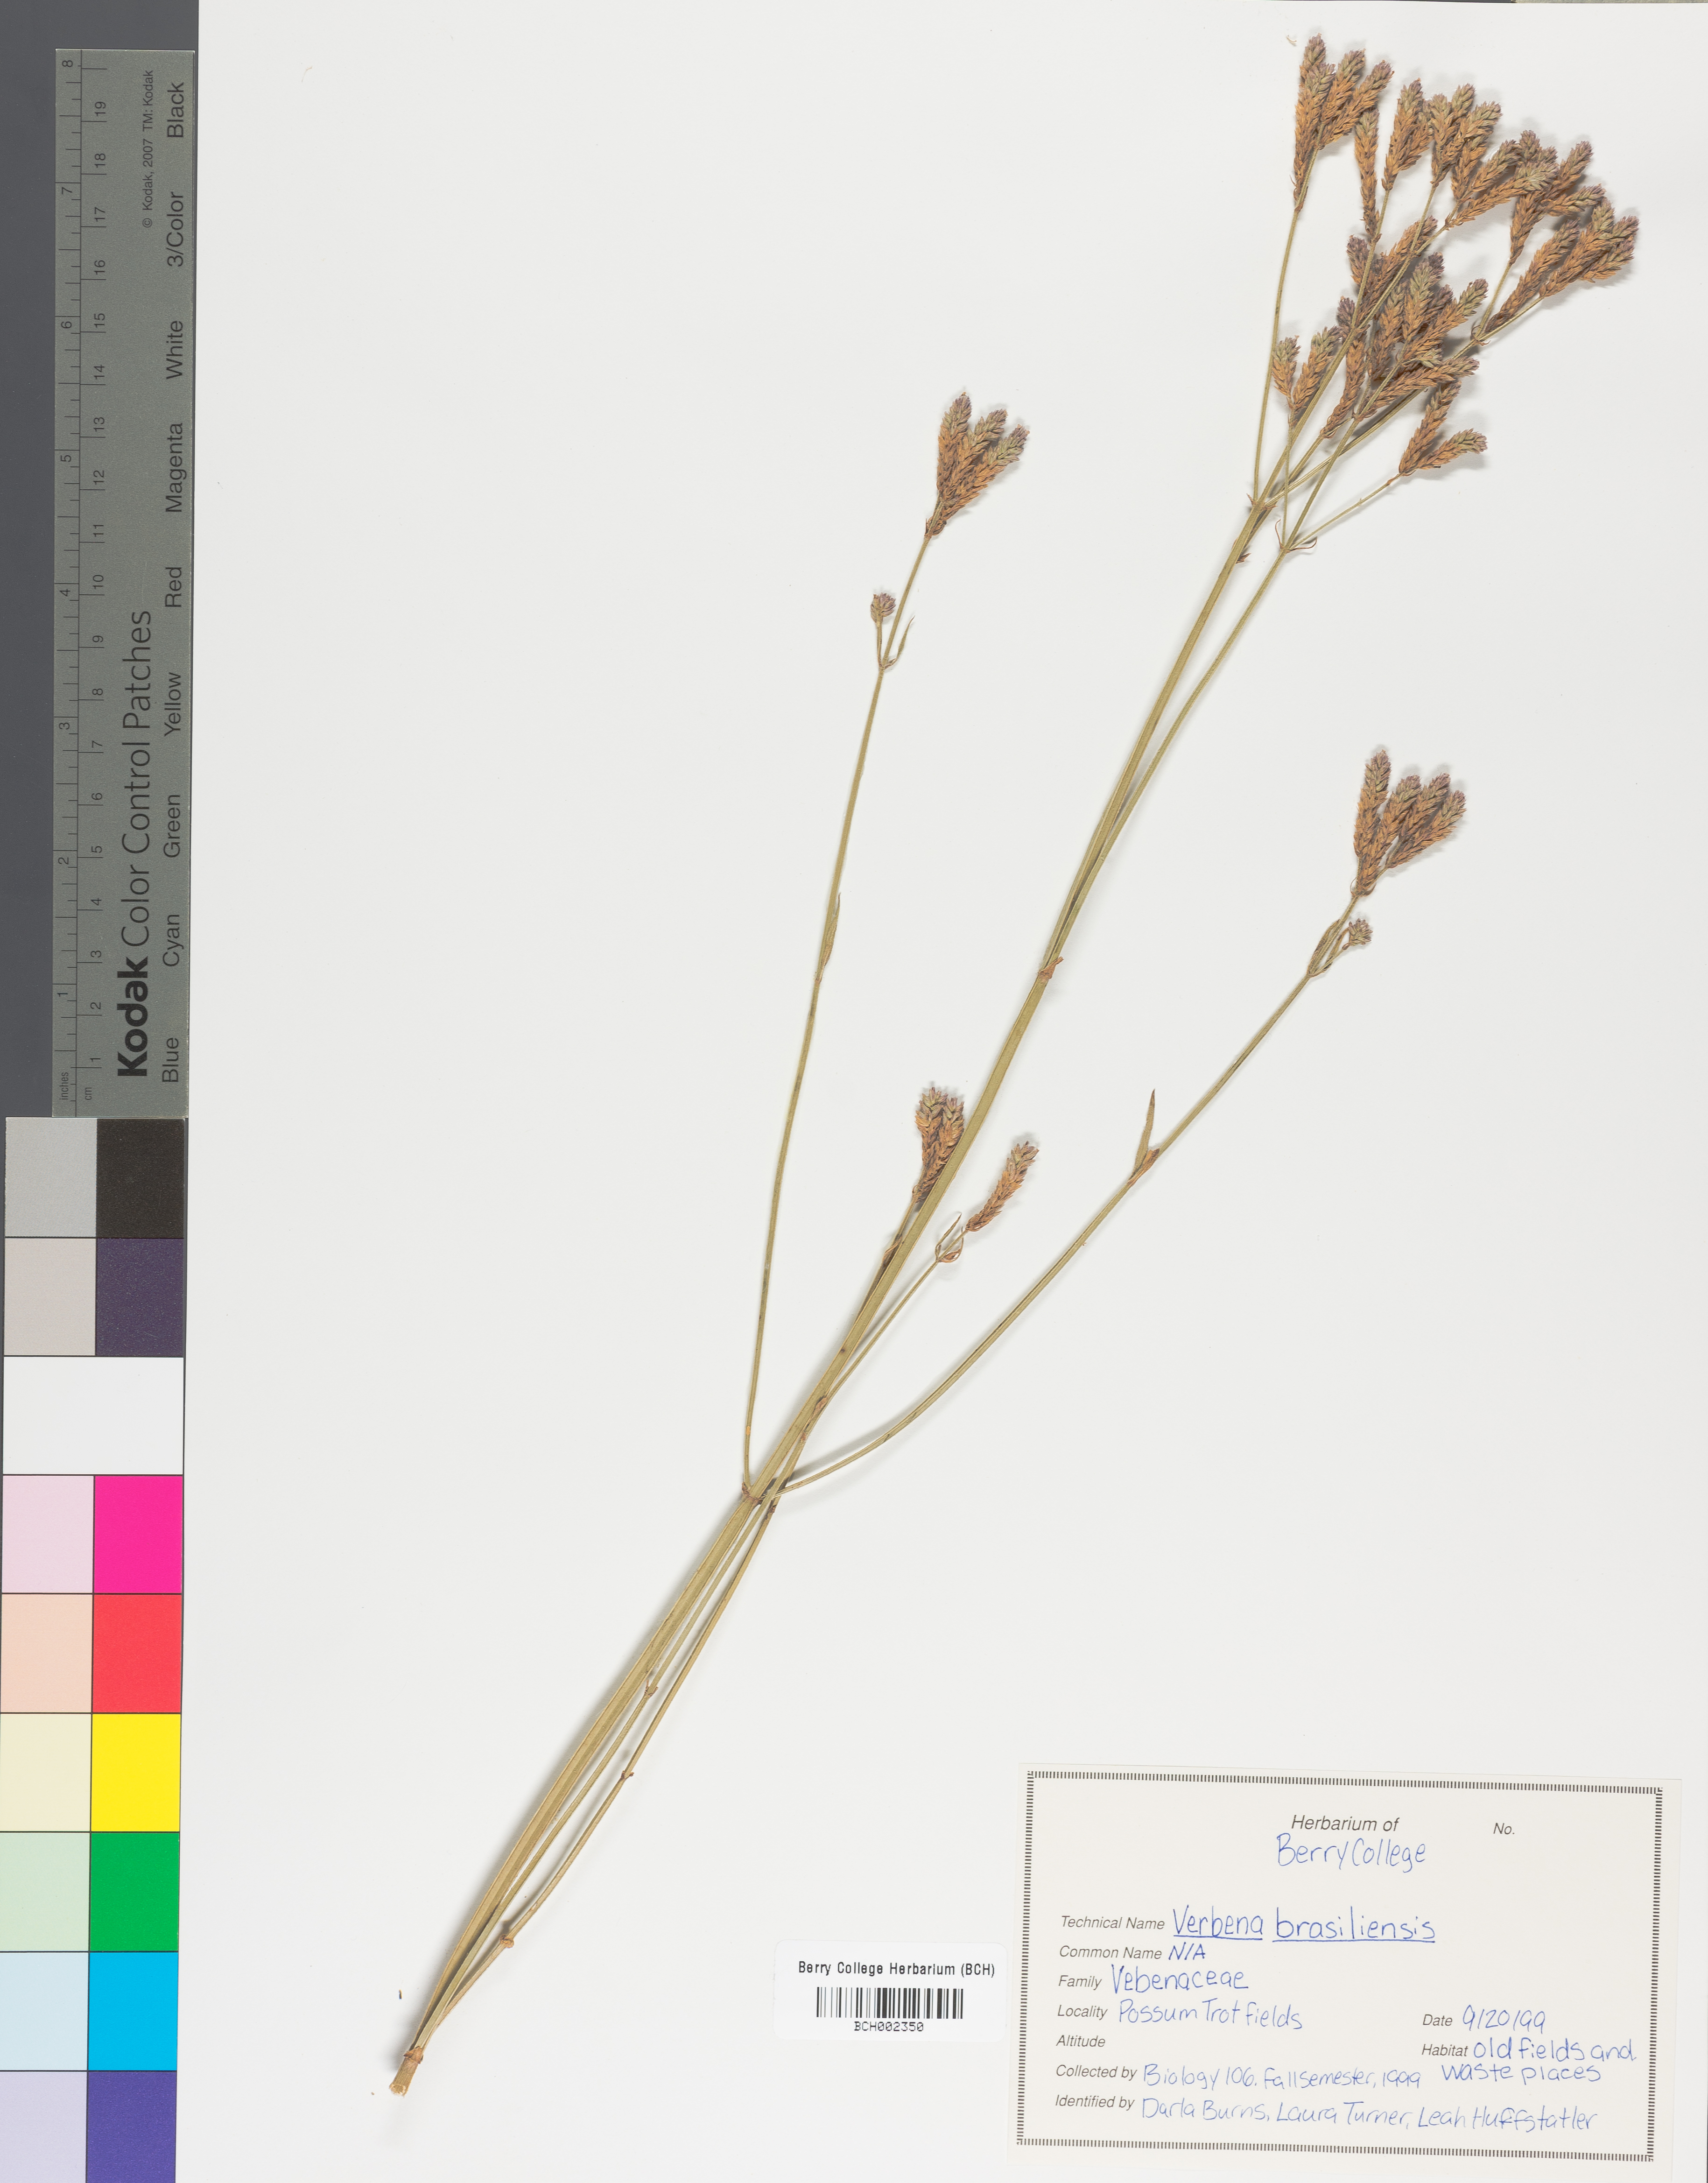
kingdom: Plantae
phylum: Tracheophyta
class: Magnoliopsida
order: Lamiales
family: Verbenaceae
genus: Verbena
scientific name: Verbena brasiliensis
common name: Brazilian vervain
